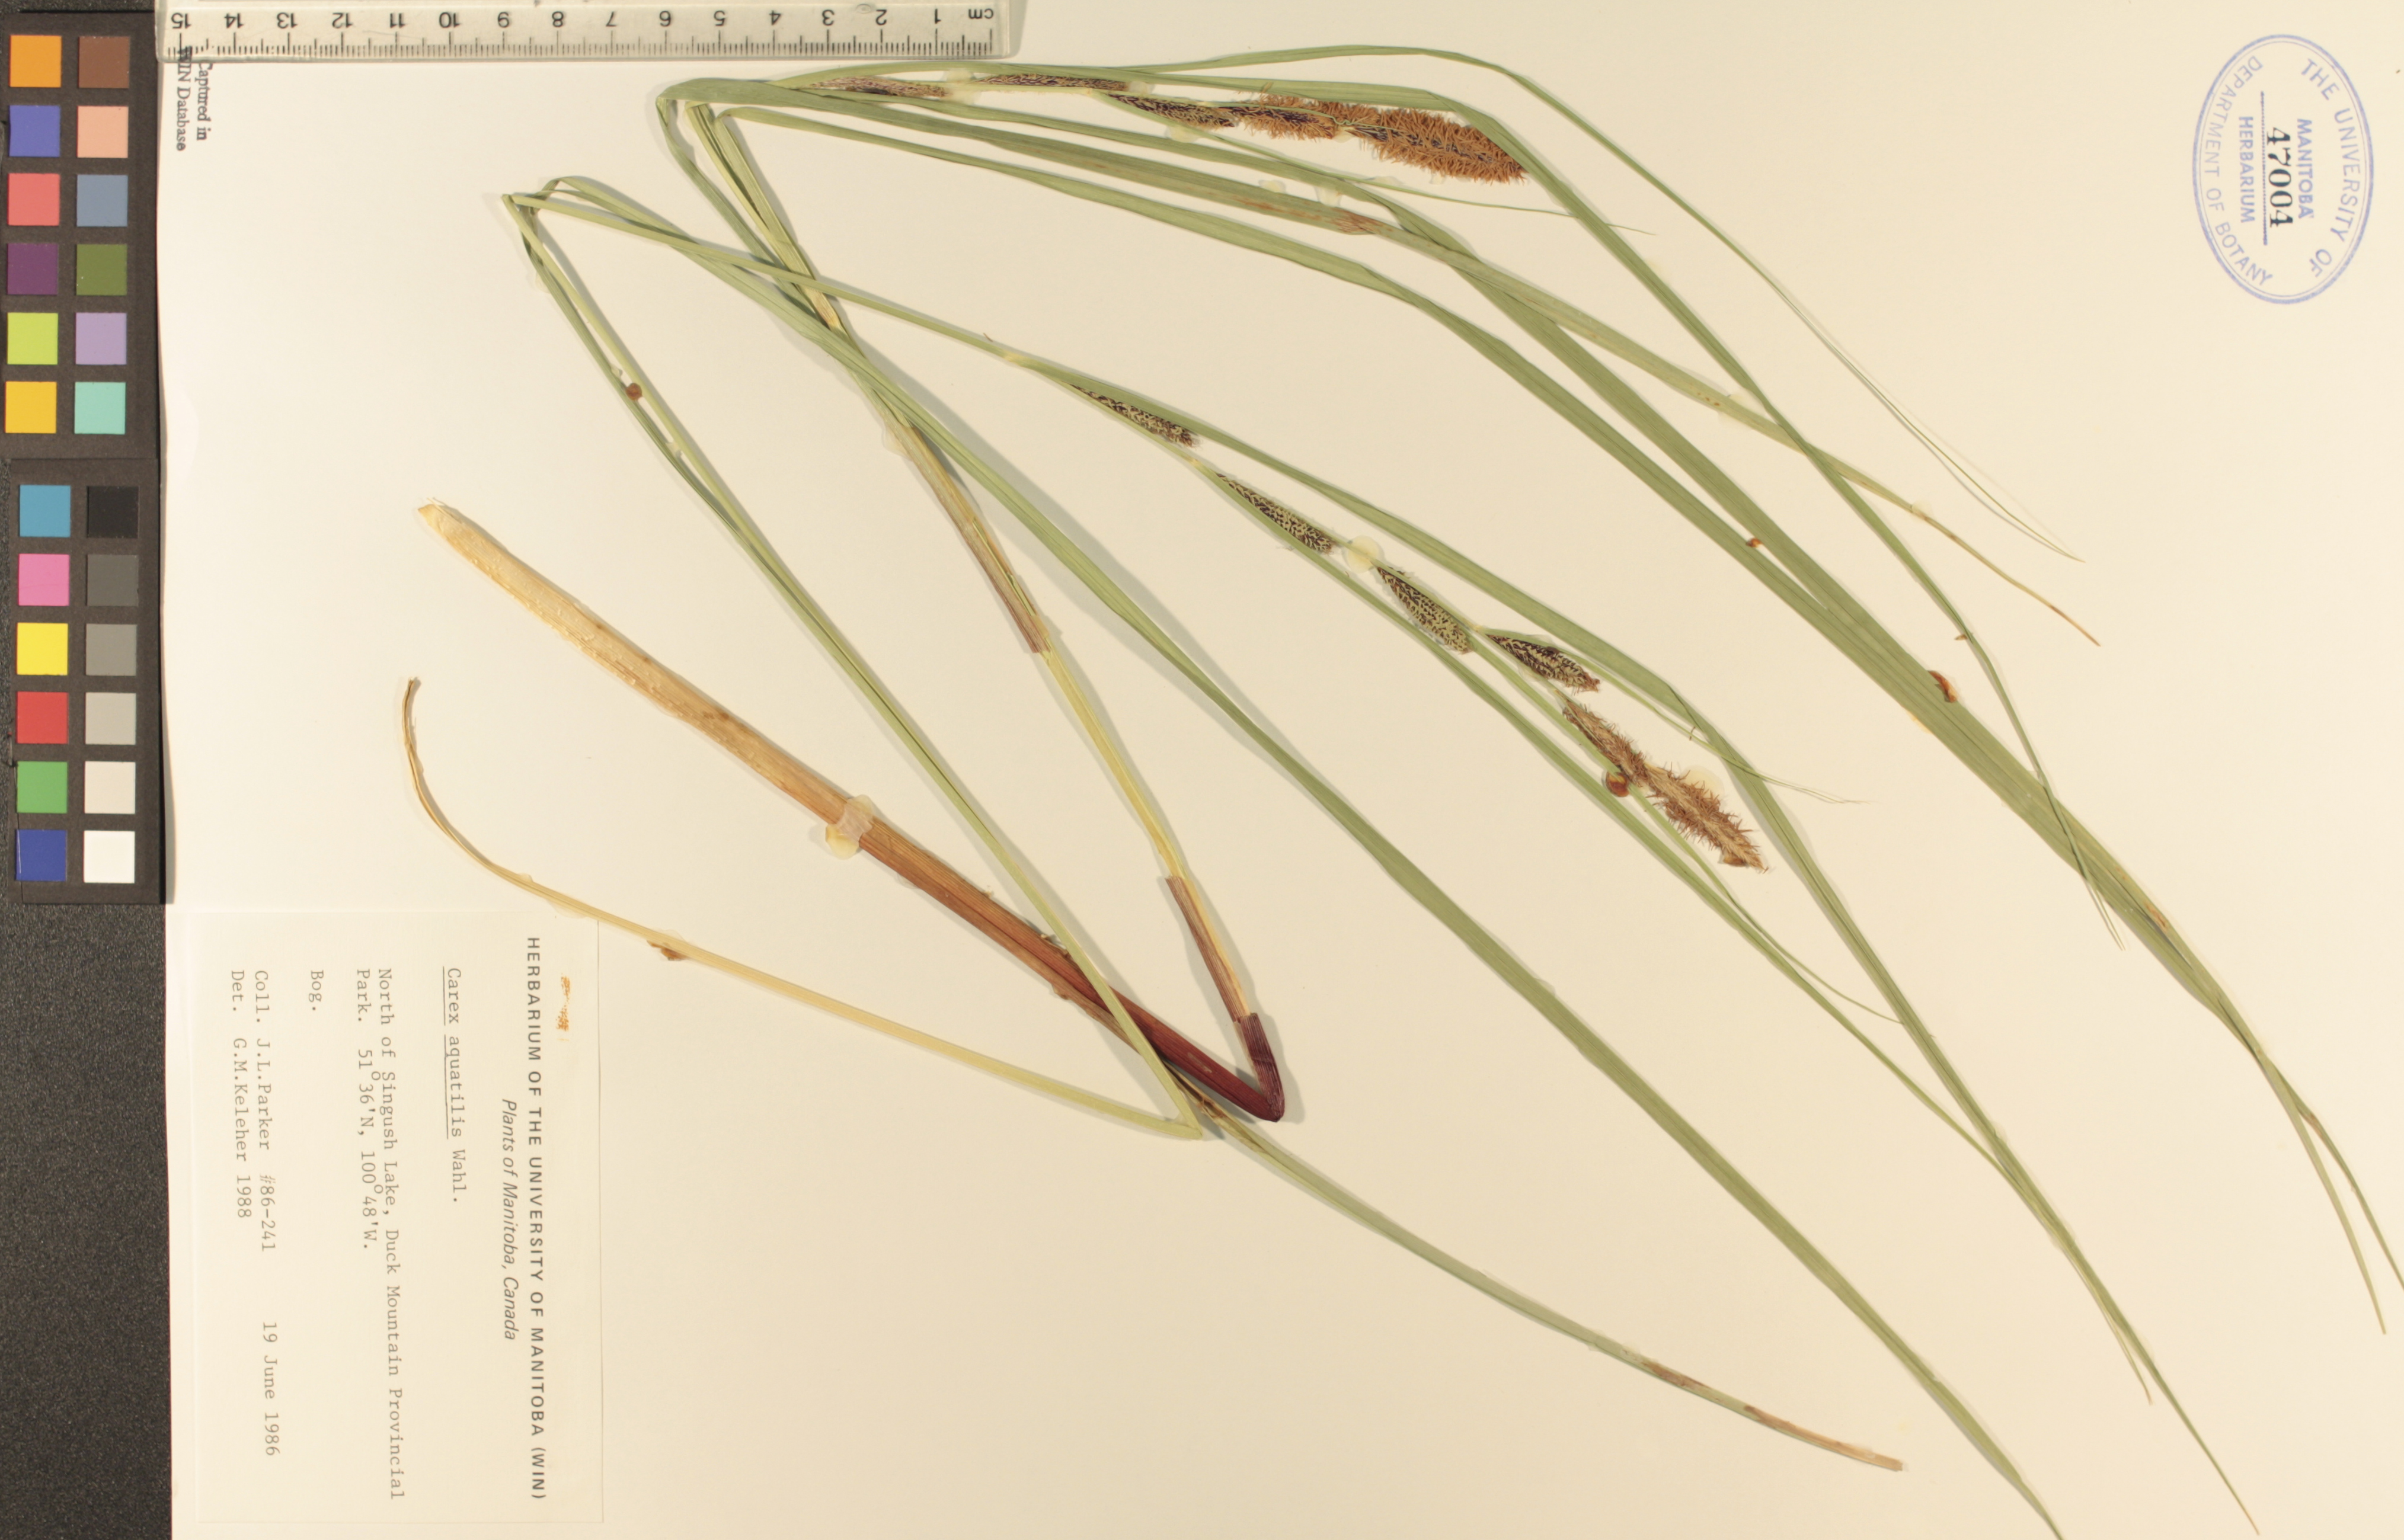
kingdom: Plantae
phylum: Tracheophyta
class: Liliopsida
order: Poales
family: Cyperaceae
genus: Carex
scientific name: Carex aquatilis
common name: Water sedge
